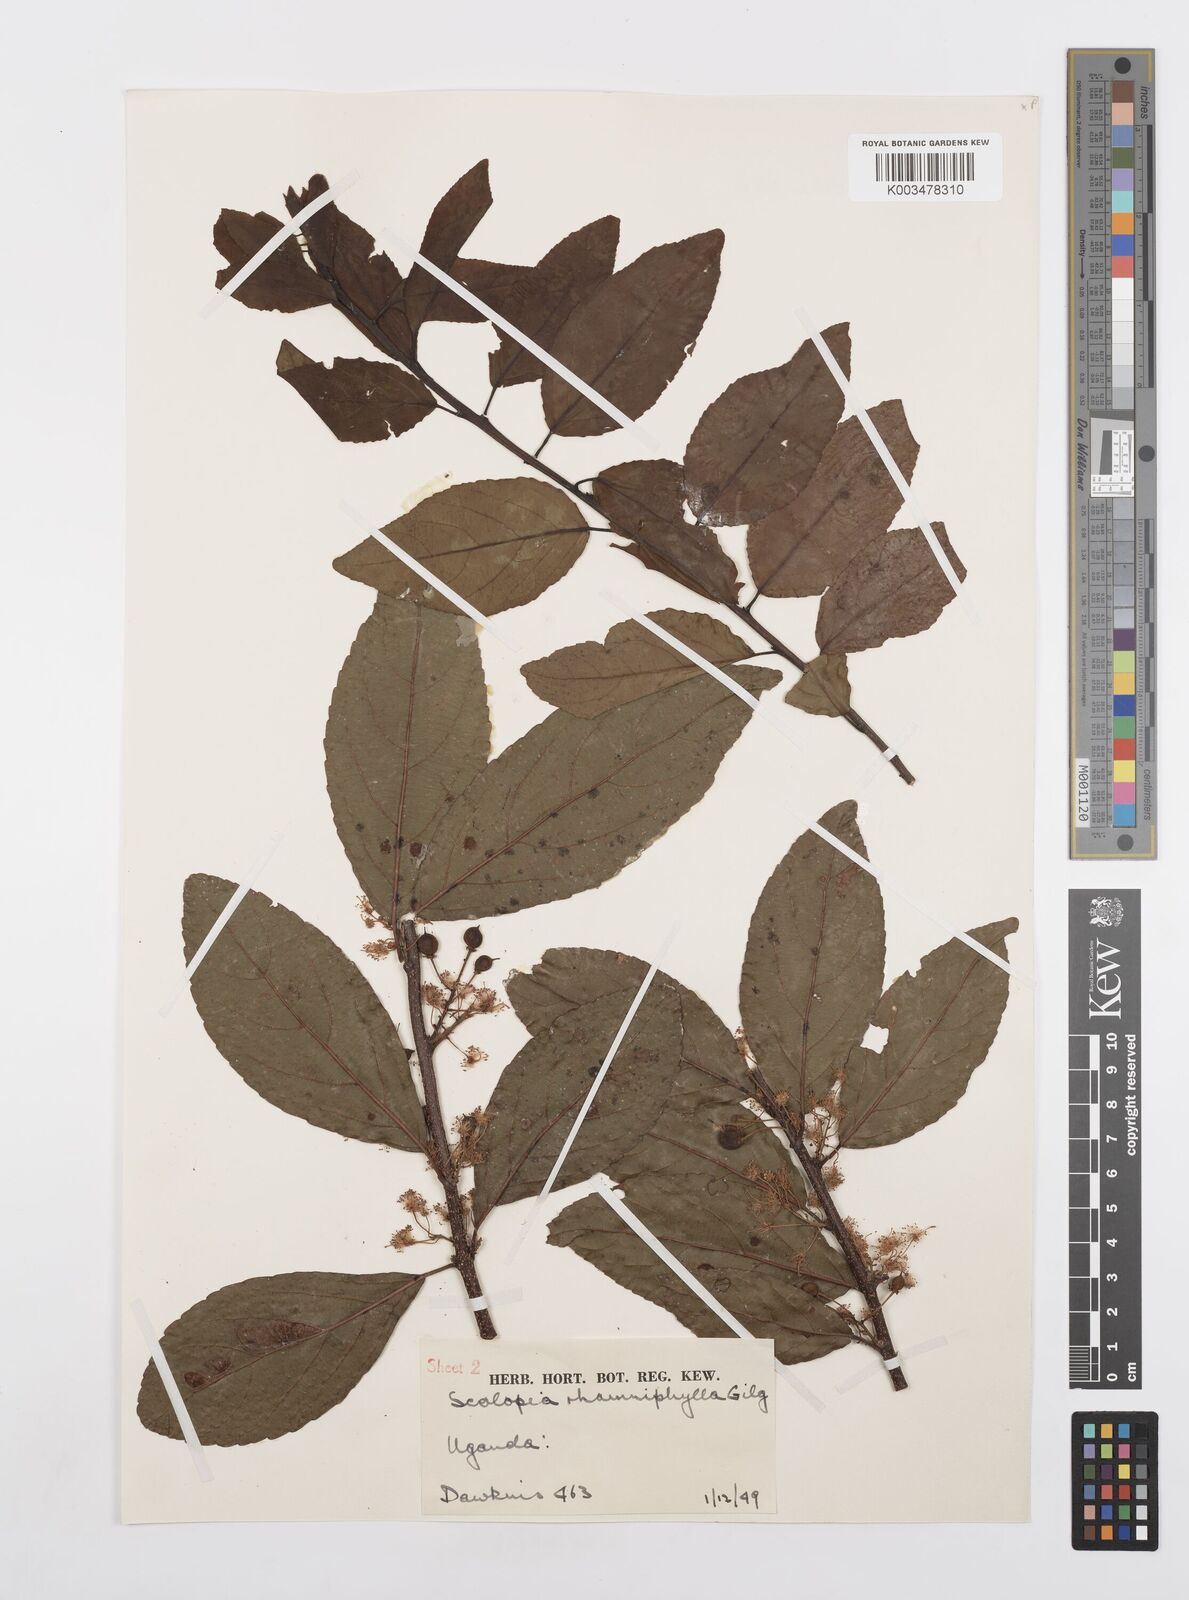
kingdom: Plantae
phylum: Tracheophyta
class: Magnoliopsida
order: Malpighiales
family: Salicaceae
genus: Scolopia
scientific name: Scolopia rhamniphylla
